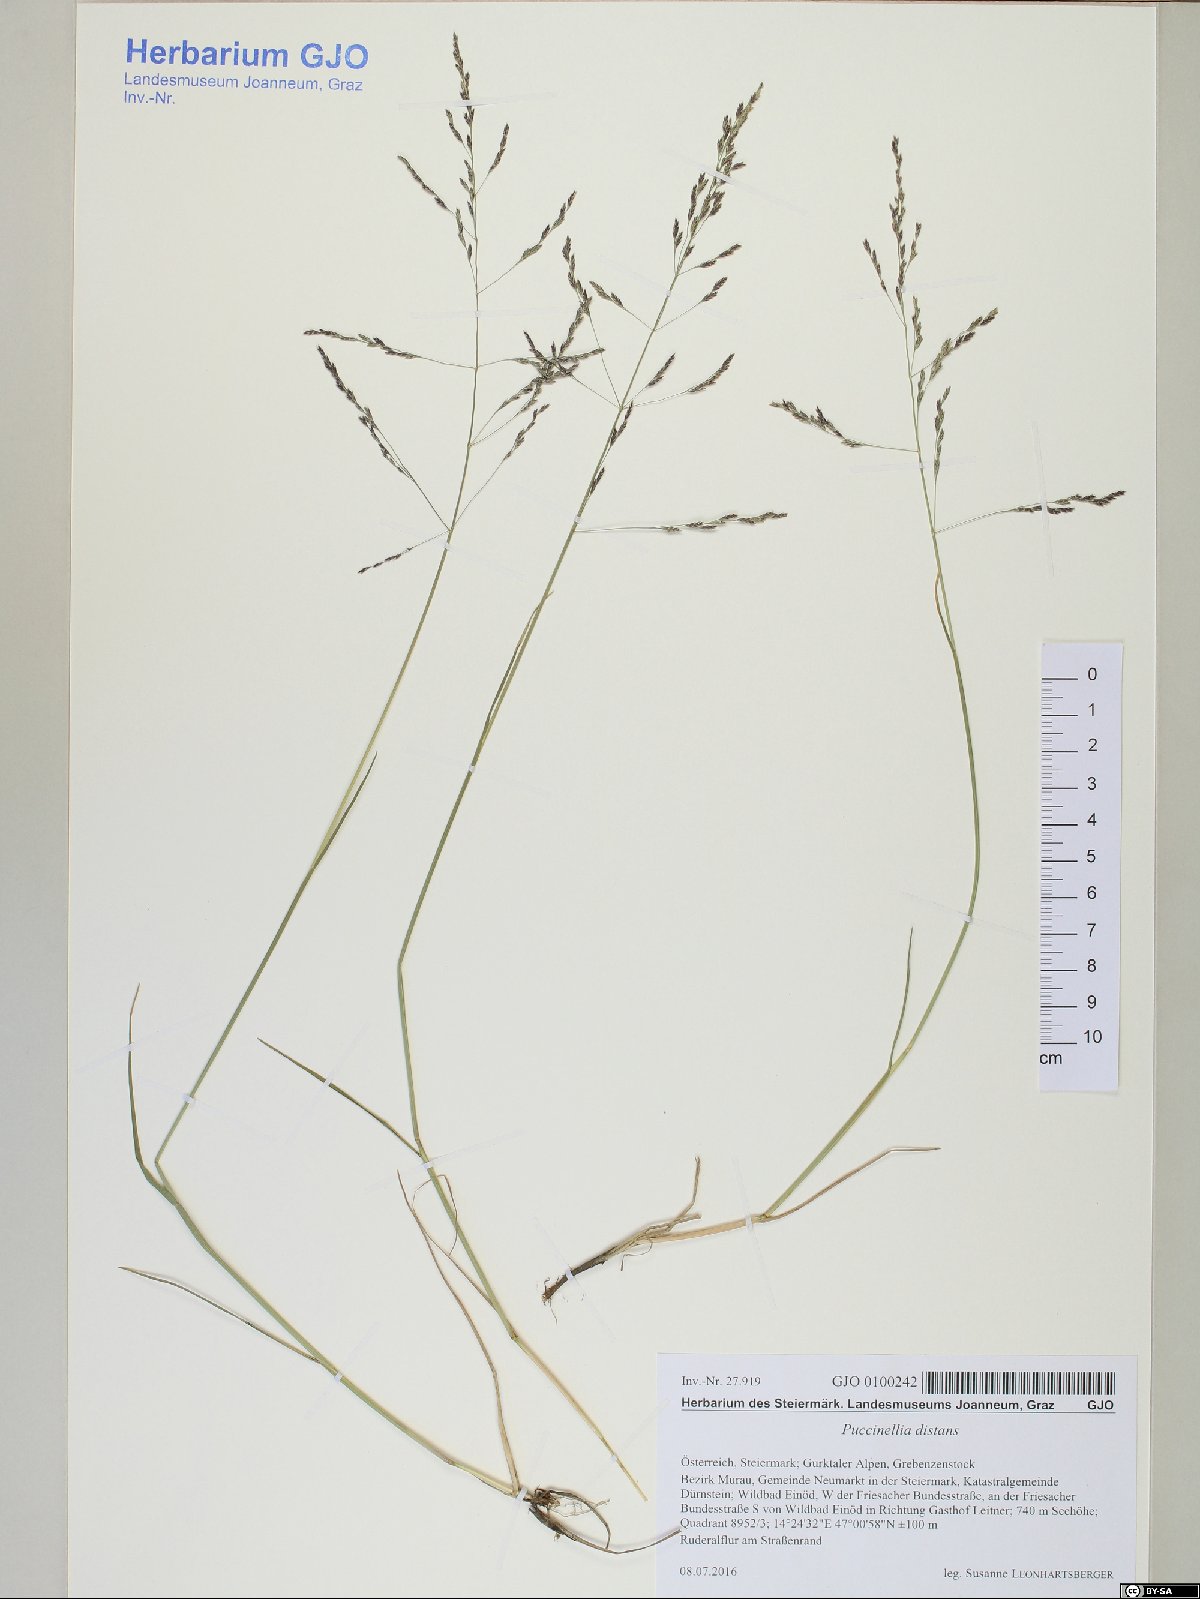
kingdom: Plantae
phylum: Tracheophyta
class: Liliopsida
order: Poales
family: Poaceae
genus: Puccinellia
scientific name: Puccinellia distans
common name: Weeping alkaligrass
